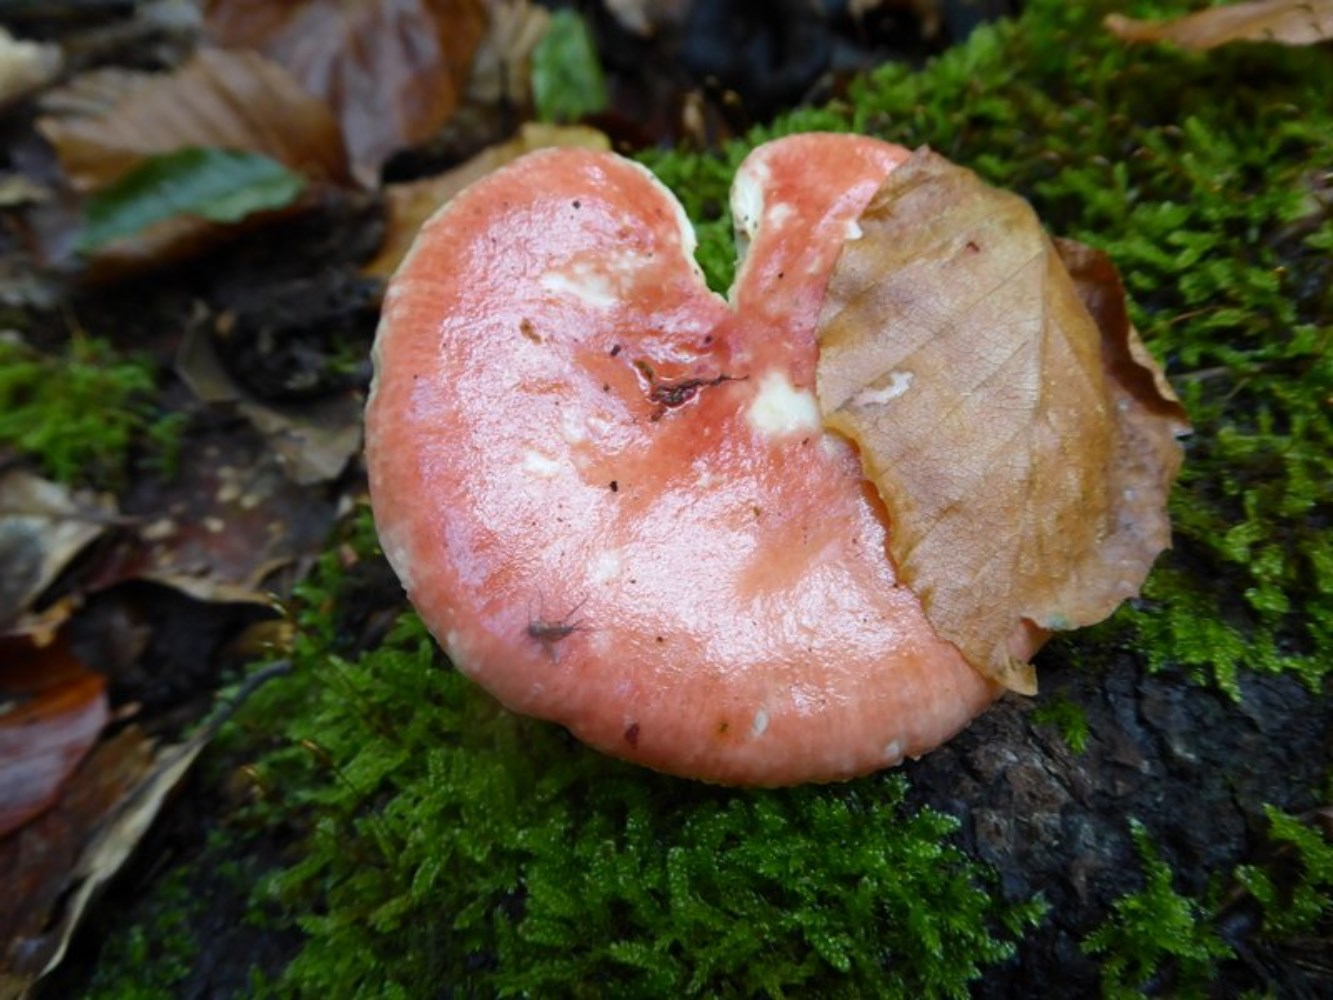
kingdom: Fungi
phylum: Basidiomycota
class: Agaricomycetes
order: Russulales
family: Russulaceae
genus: Russula
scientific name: Russula
